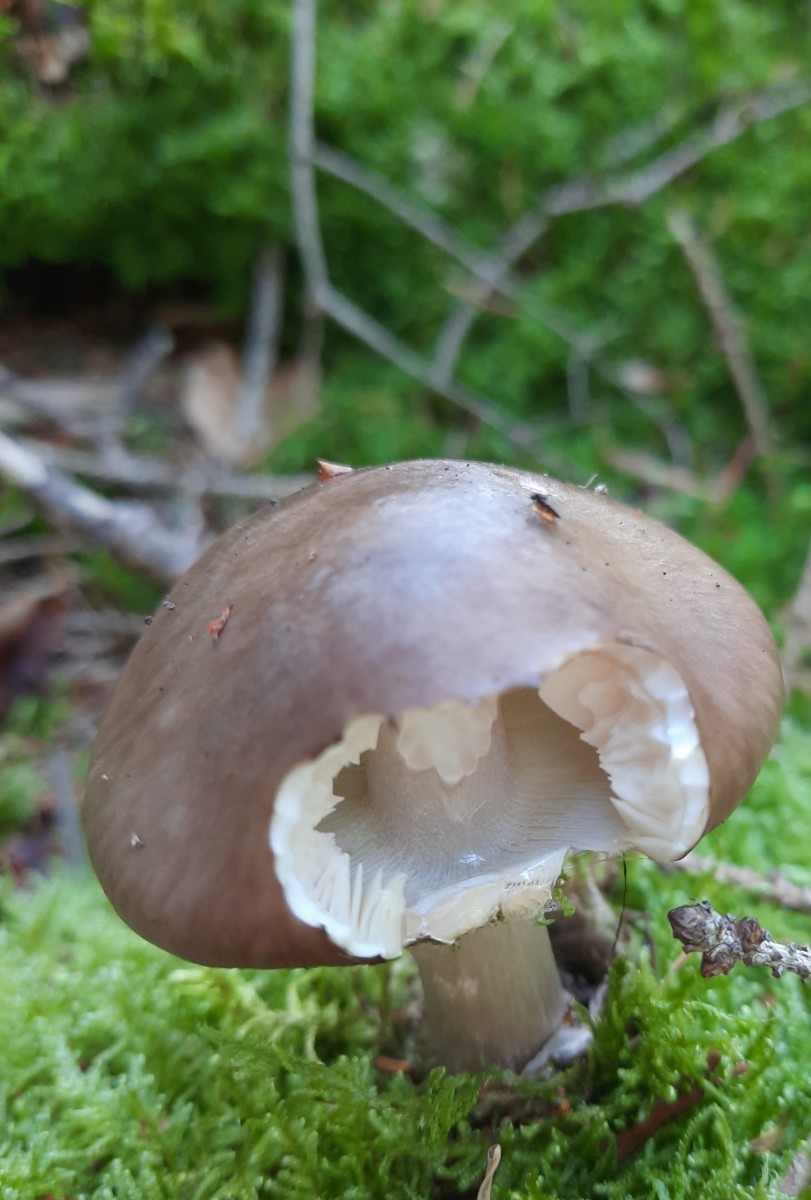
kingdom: Fungi
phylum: Basidiomycota
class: Agaricomycetes
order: Agaricales
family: Amanitaceae
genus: Amanita
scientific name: Amanita porphyria
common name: porfyr-fluesvamp
